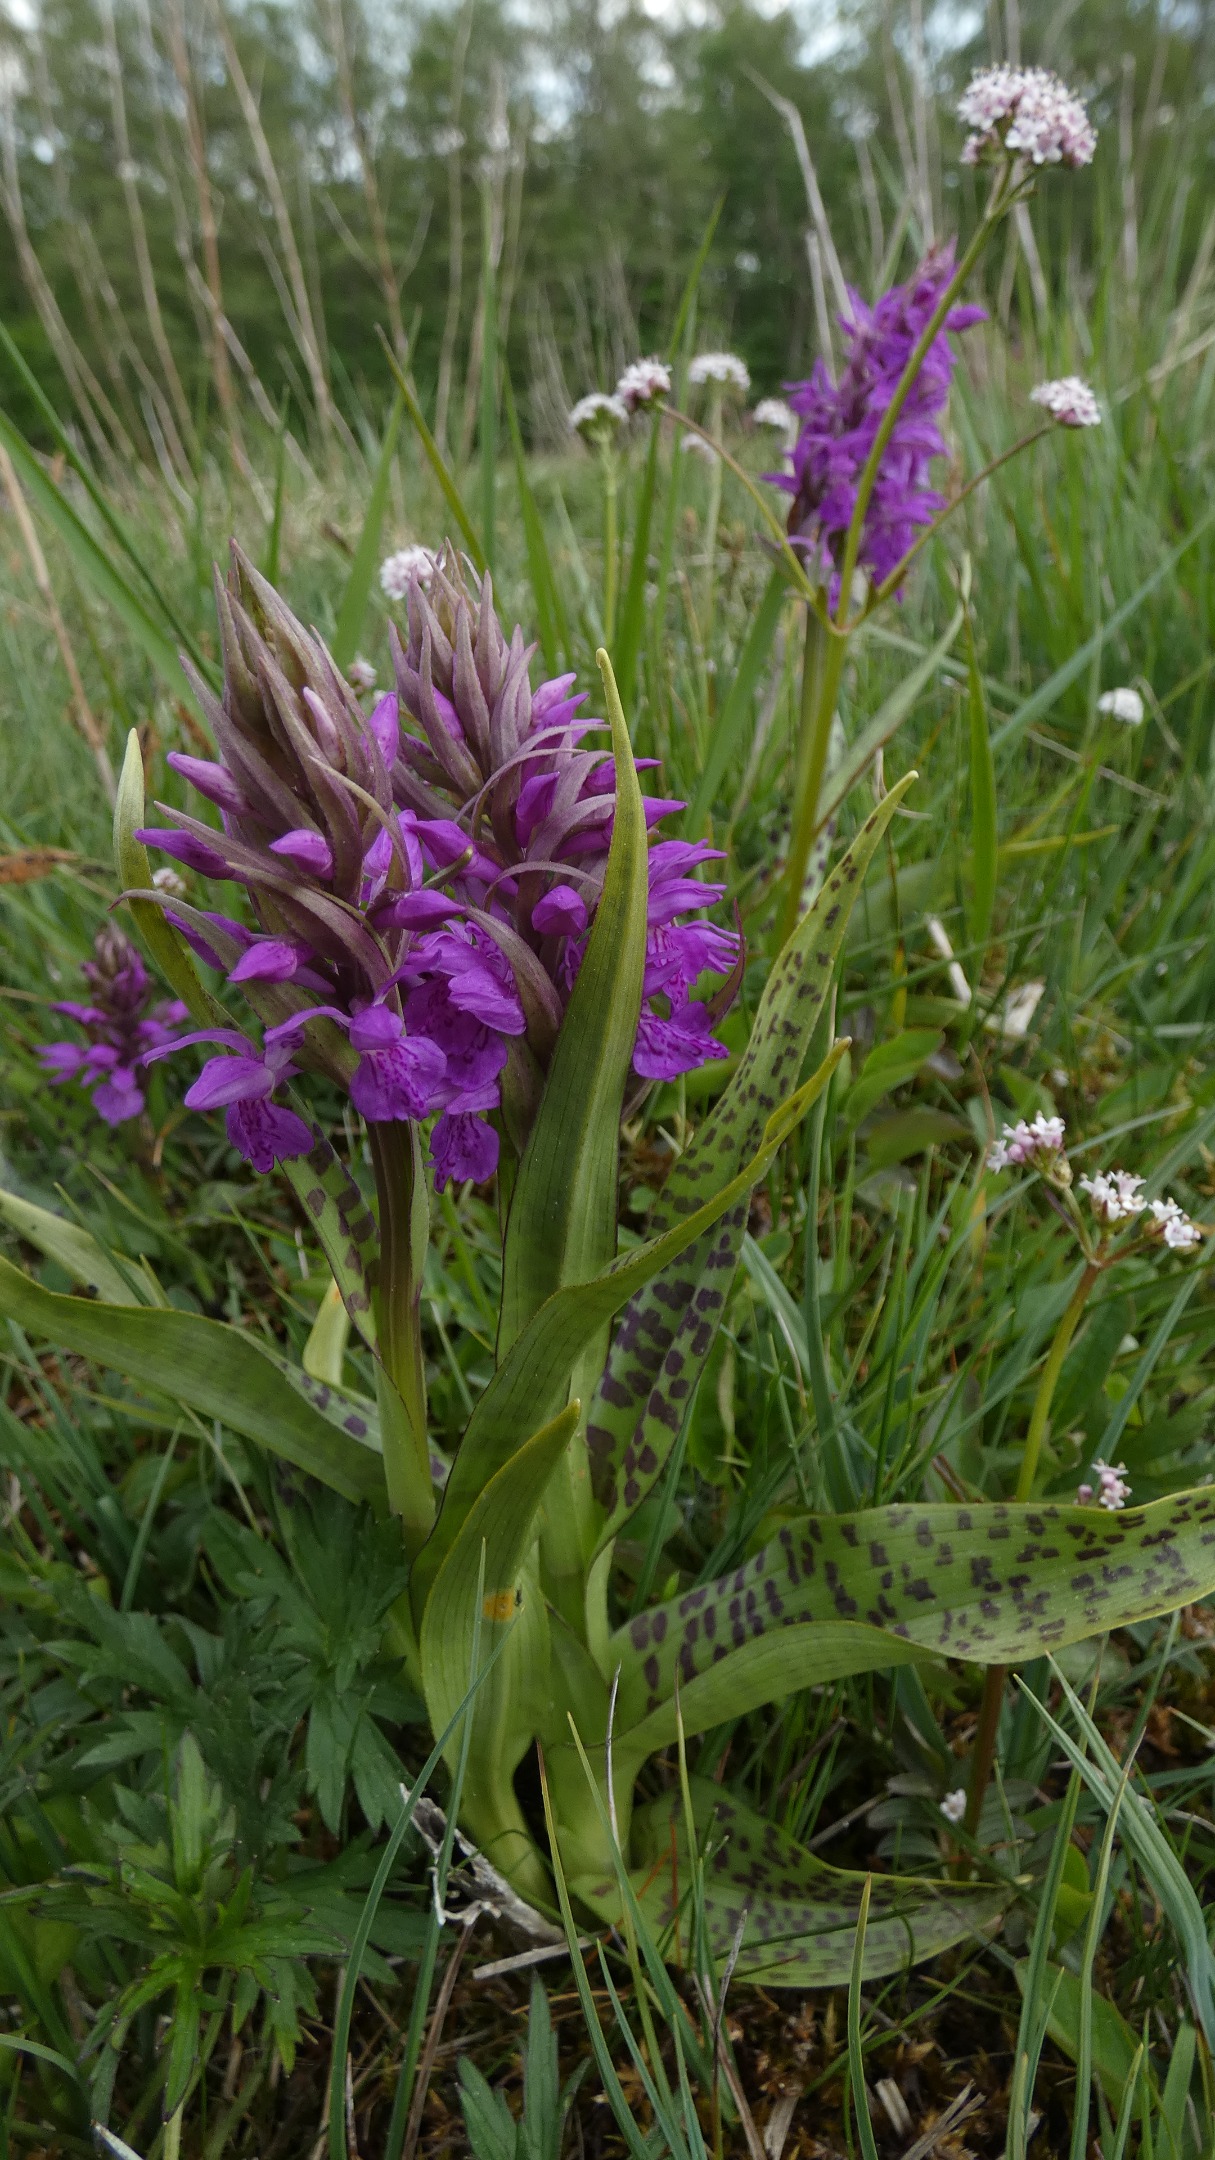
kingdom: Plantae
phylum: Tracheophyta
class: Liliopsida
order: Asparagales
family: Orchidaceae
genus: Dactylorhiza
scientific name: Dactylorhiza majalis
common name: Maj-gøgeurt
